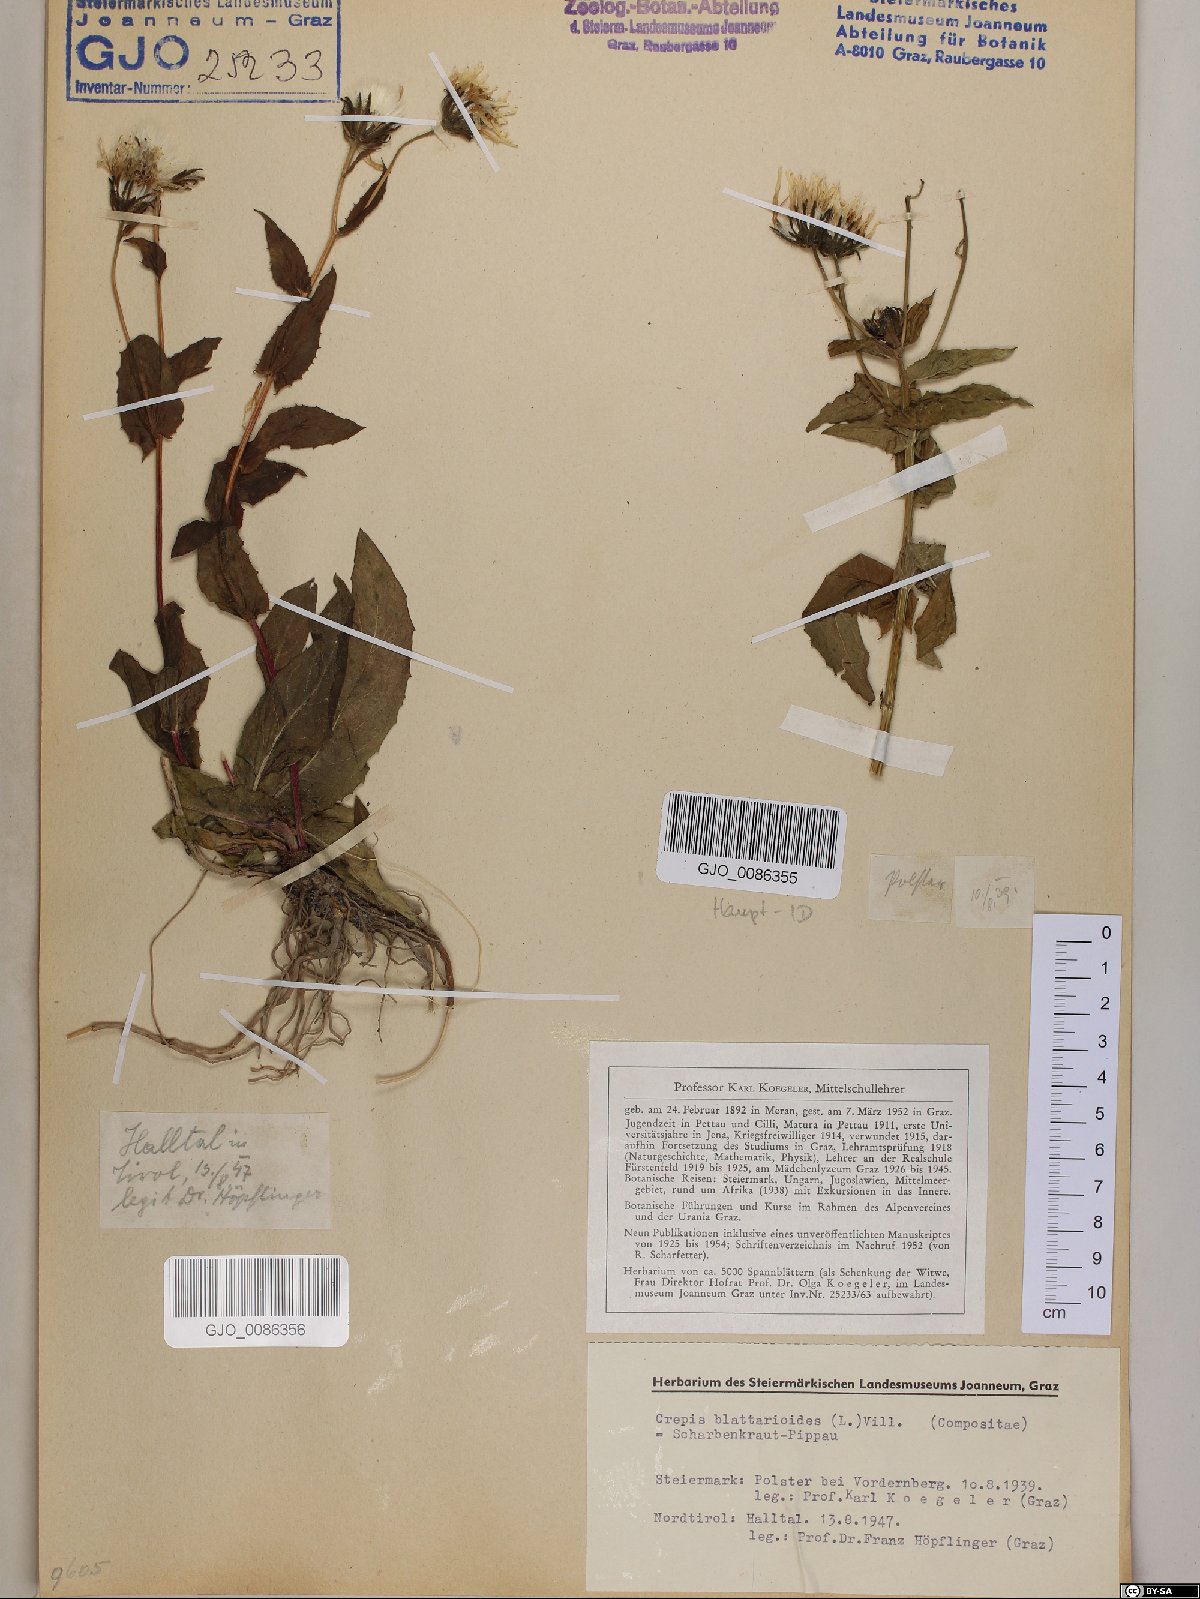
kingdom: Plantae
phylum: Tracheophyta
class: Magnoliopsida
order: Asterales
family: Asteraceae
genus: Crepis
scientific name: Crepis blattarioides
